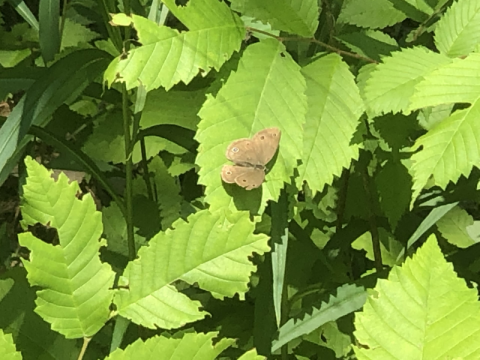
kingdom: Animalia
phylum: Arthropoda
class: Insecta
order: Lepidoptera
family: Nymphalidae
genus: Euptychia
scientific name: Euptychia cymela
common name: Little Wood Satyr
